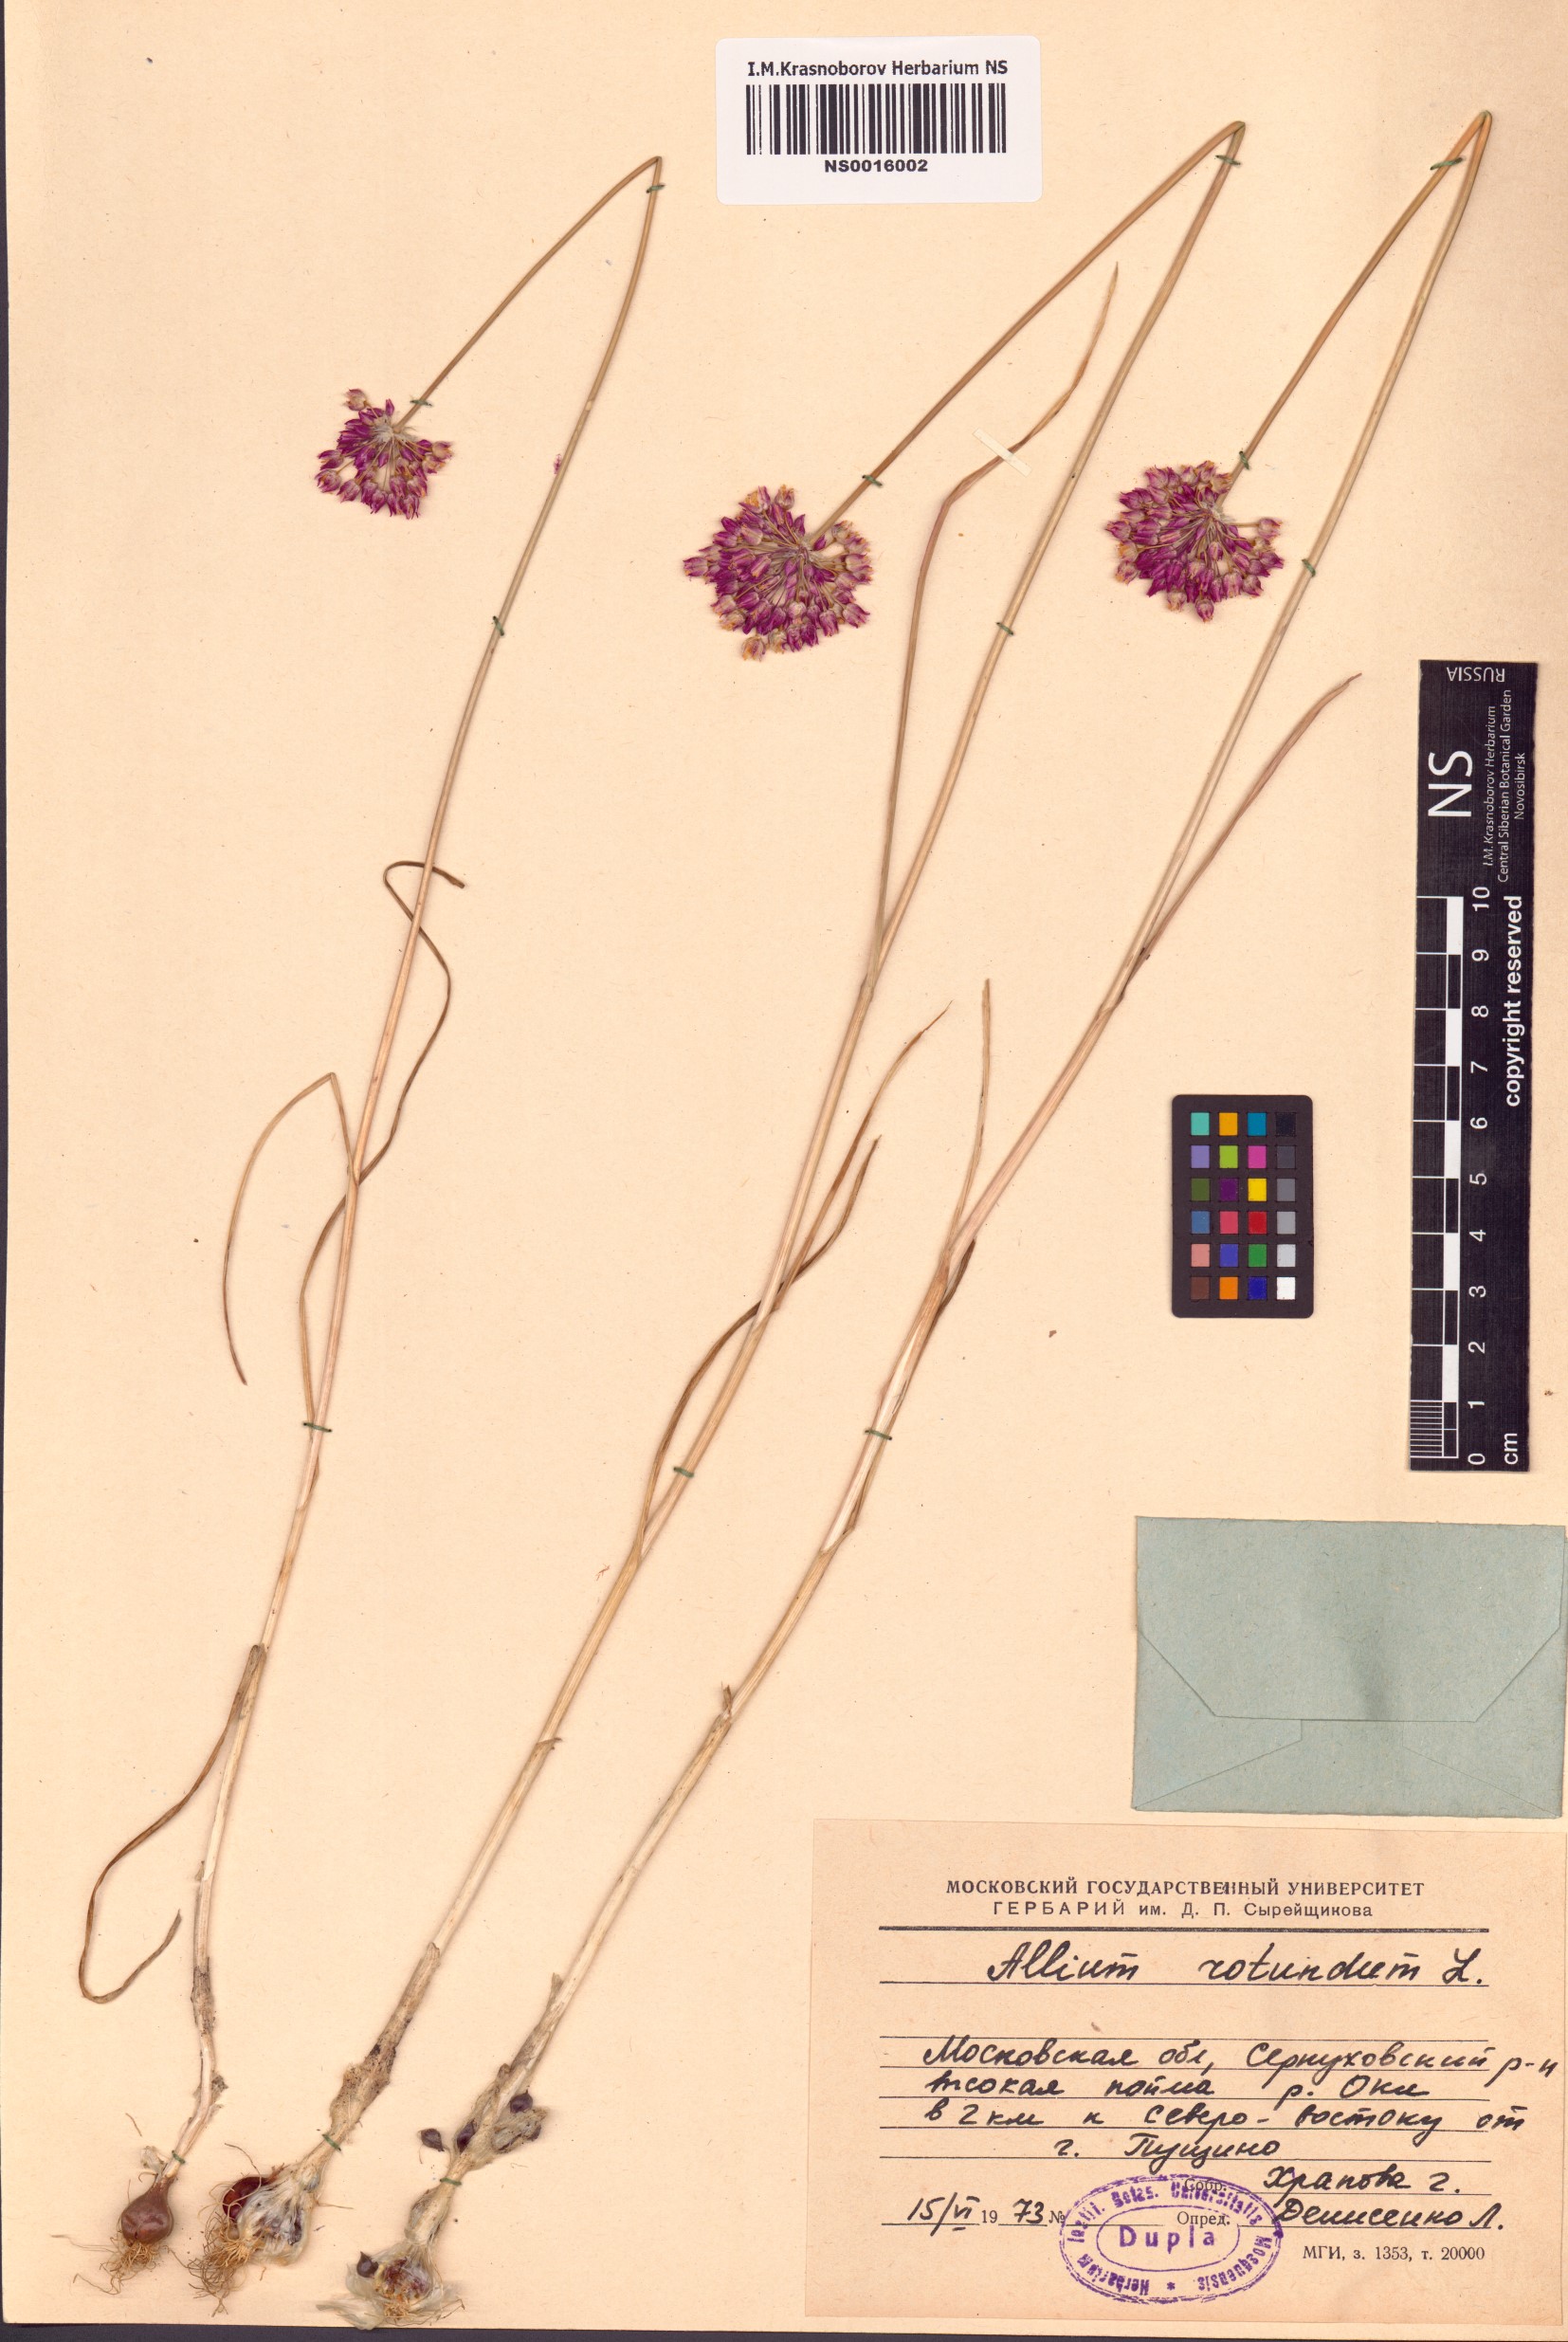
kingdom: Plantae
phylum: Tracheophyta
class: Liliopsida
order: Asparagales
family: Amaryllidaceae
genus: Allium
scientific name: Allium rotundum
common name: Sand leek
